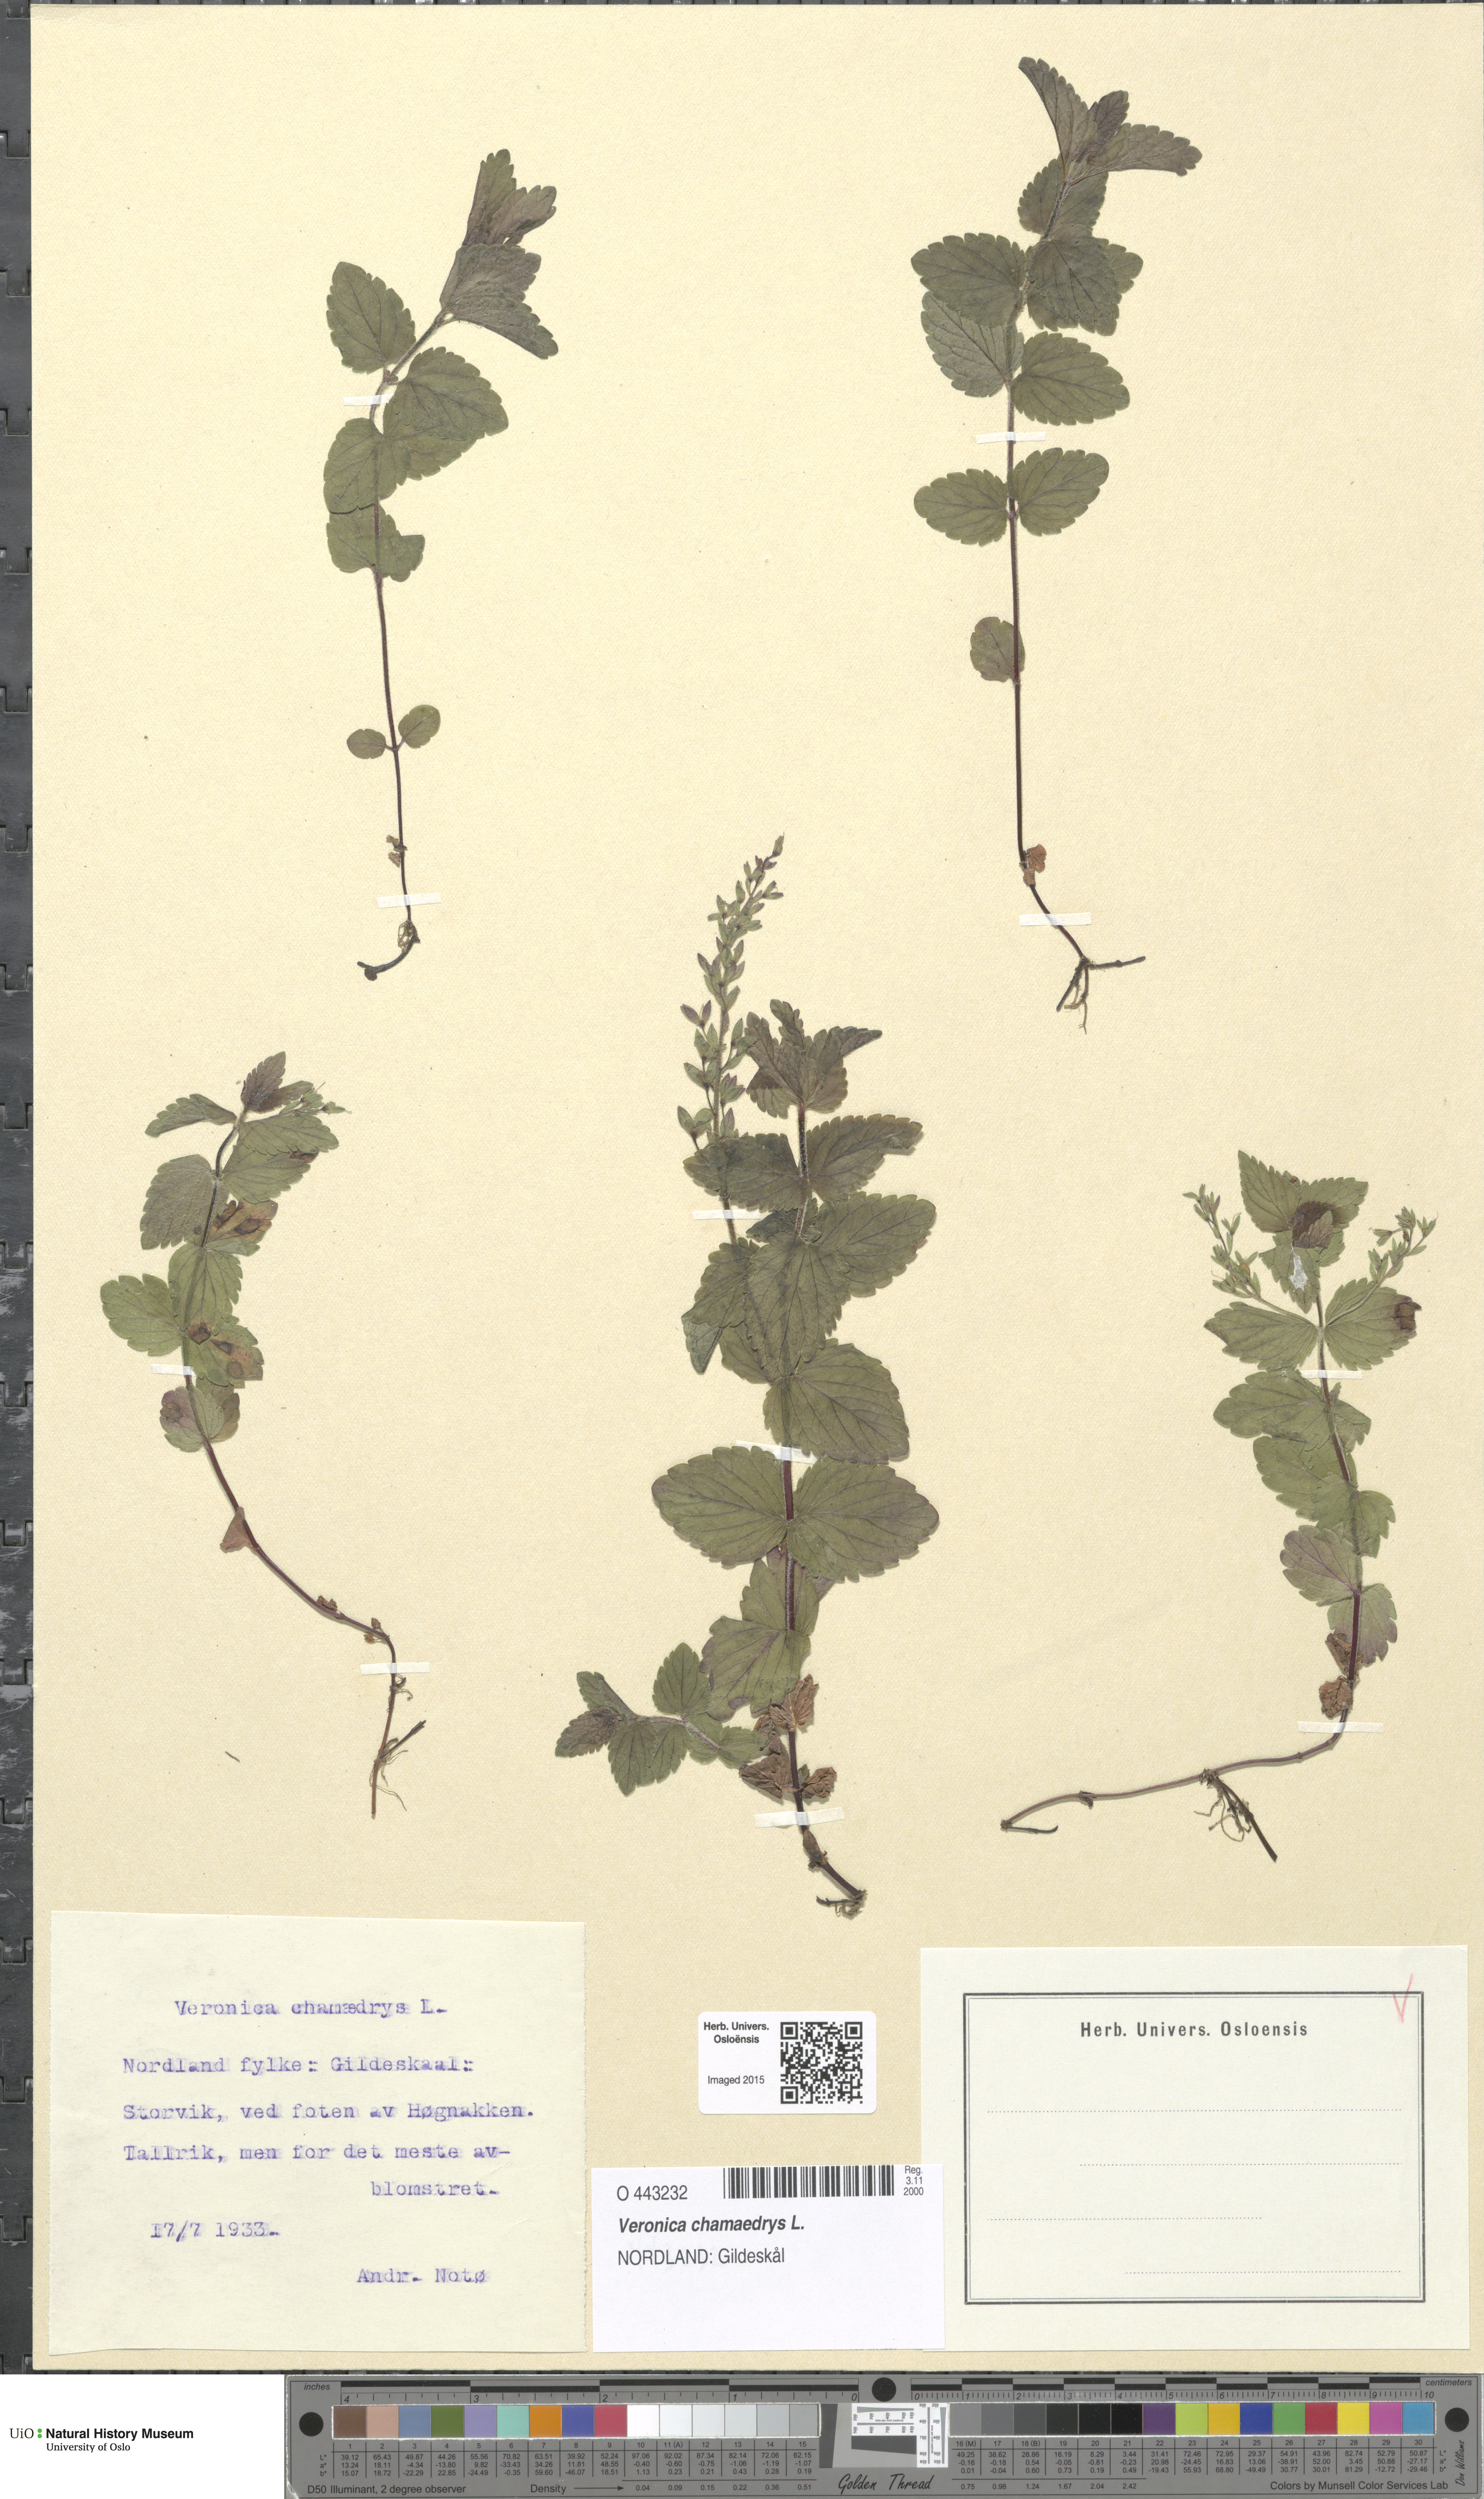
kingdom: Plantae
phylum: Tracheophyta
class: Magnoliopsida
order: Lamiales
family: Plantaginaceae
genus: Veronica
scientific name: Veronica chamaedrys
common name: Germander speedwell
